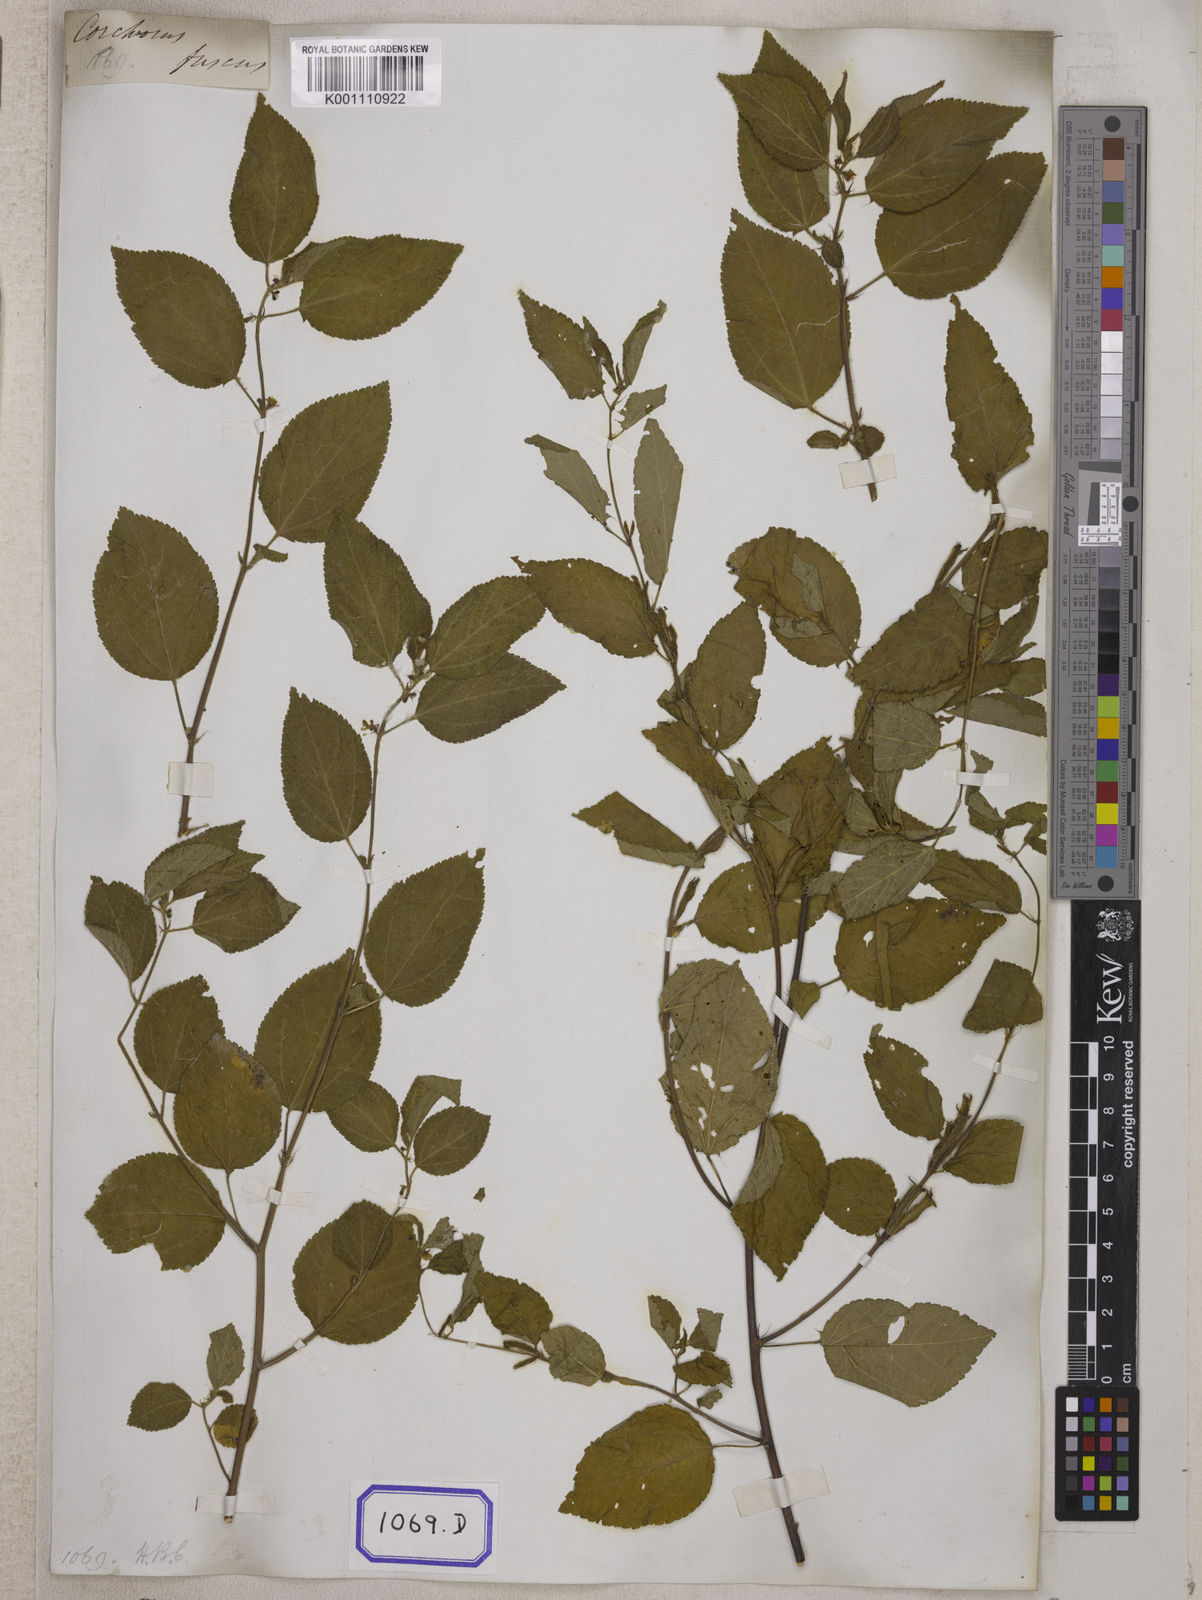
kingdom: Plantae
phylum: Tracheophyta
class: Magnoliopsida
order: Malvales
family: Malvaceae
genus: Corchorus
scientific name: Corchorus aestuans
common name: Jute
